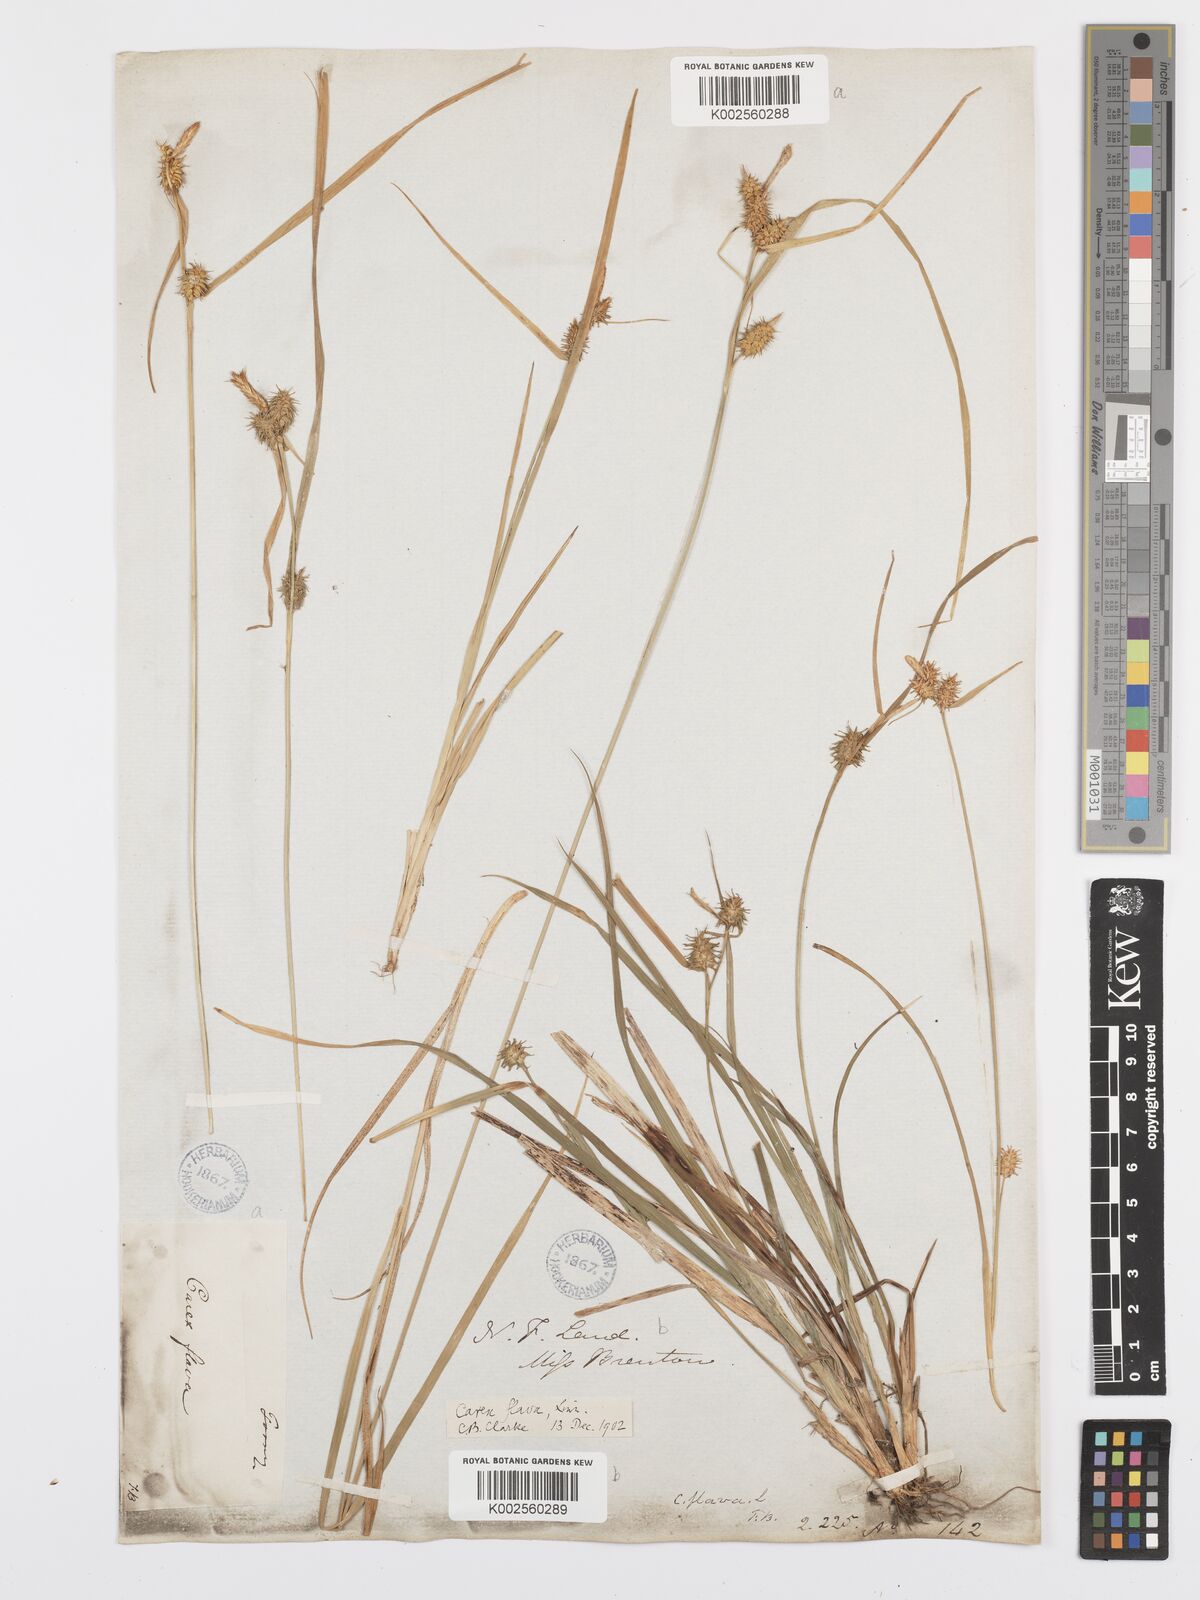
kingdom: Plantae
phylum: Tracheophyta
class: Liliopsida
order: Poales
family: Cyperaceae
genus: Carex
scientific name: Carex flava
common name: Large yellow-sedge
